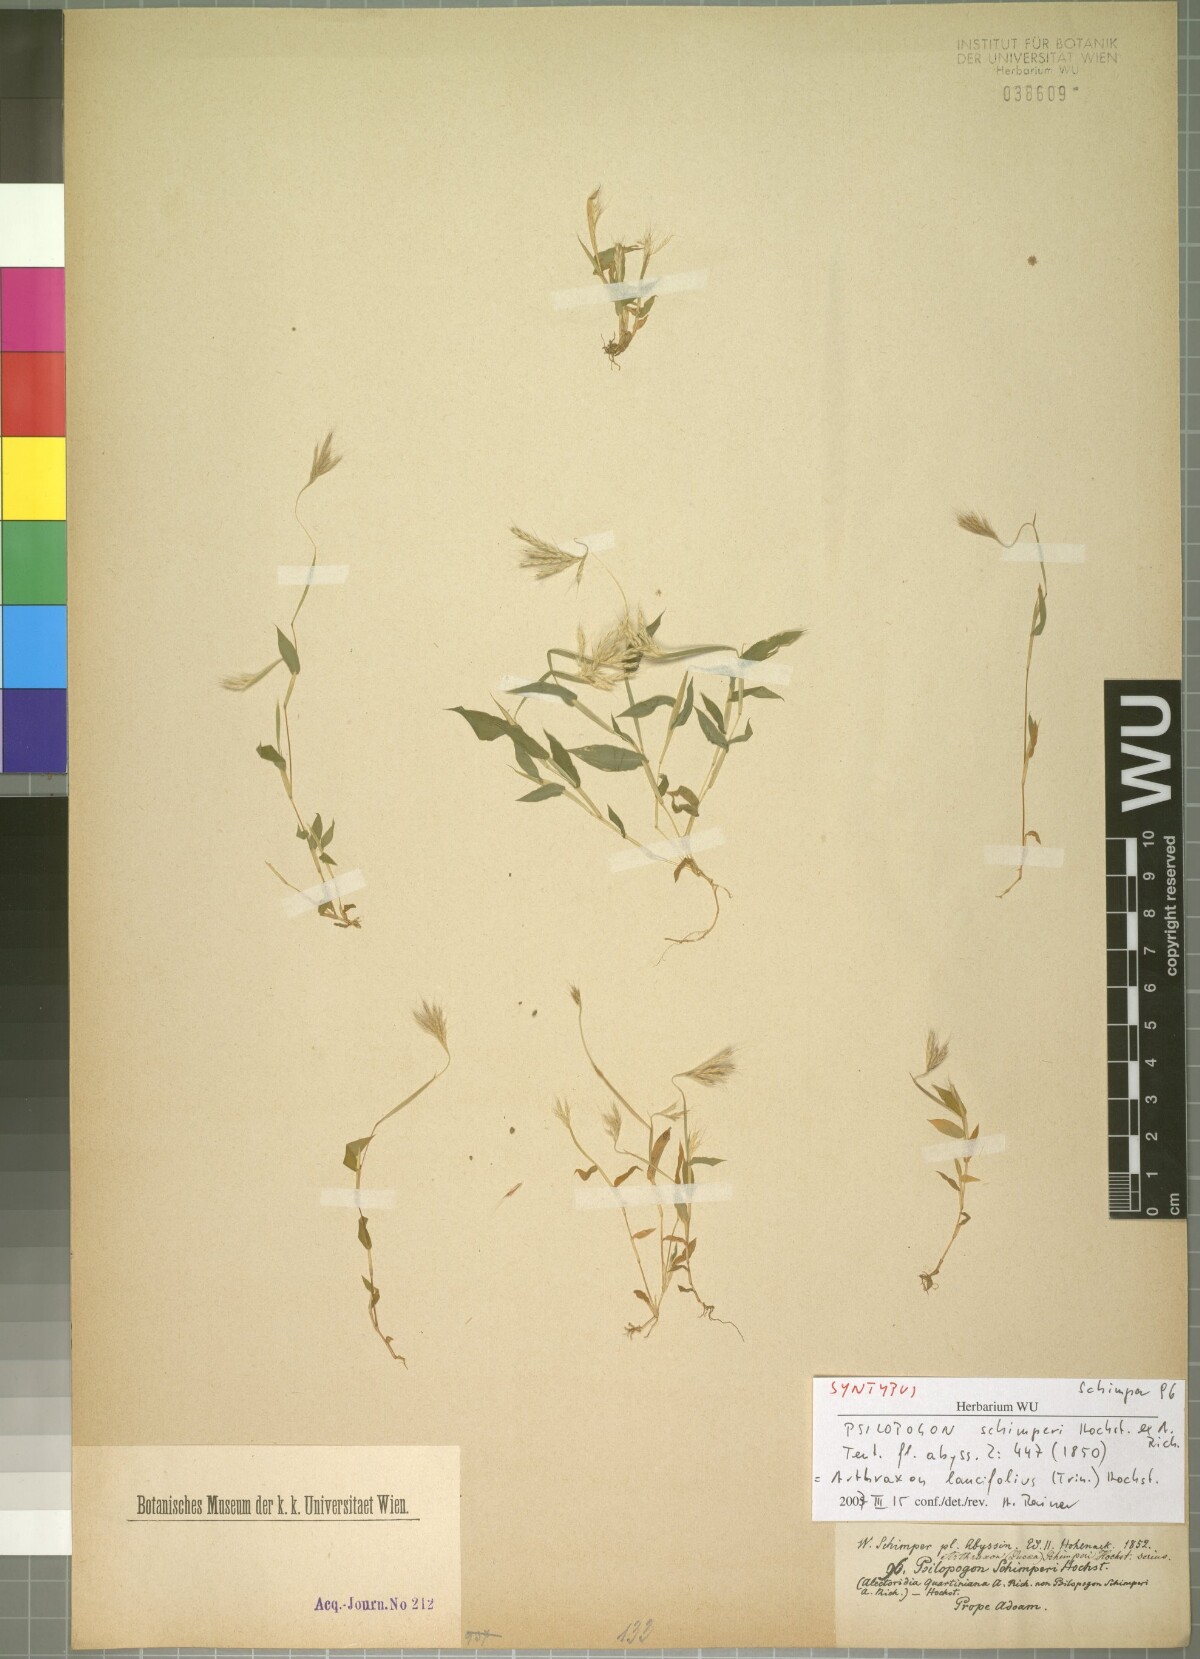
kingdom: Plantae
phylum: Tracheophyta
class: Liliopsida
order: Poales
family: Poaceae
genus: Arthraxon
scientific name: Arthraxon lancifolius
